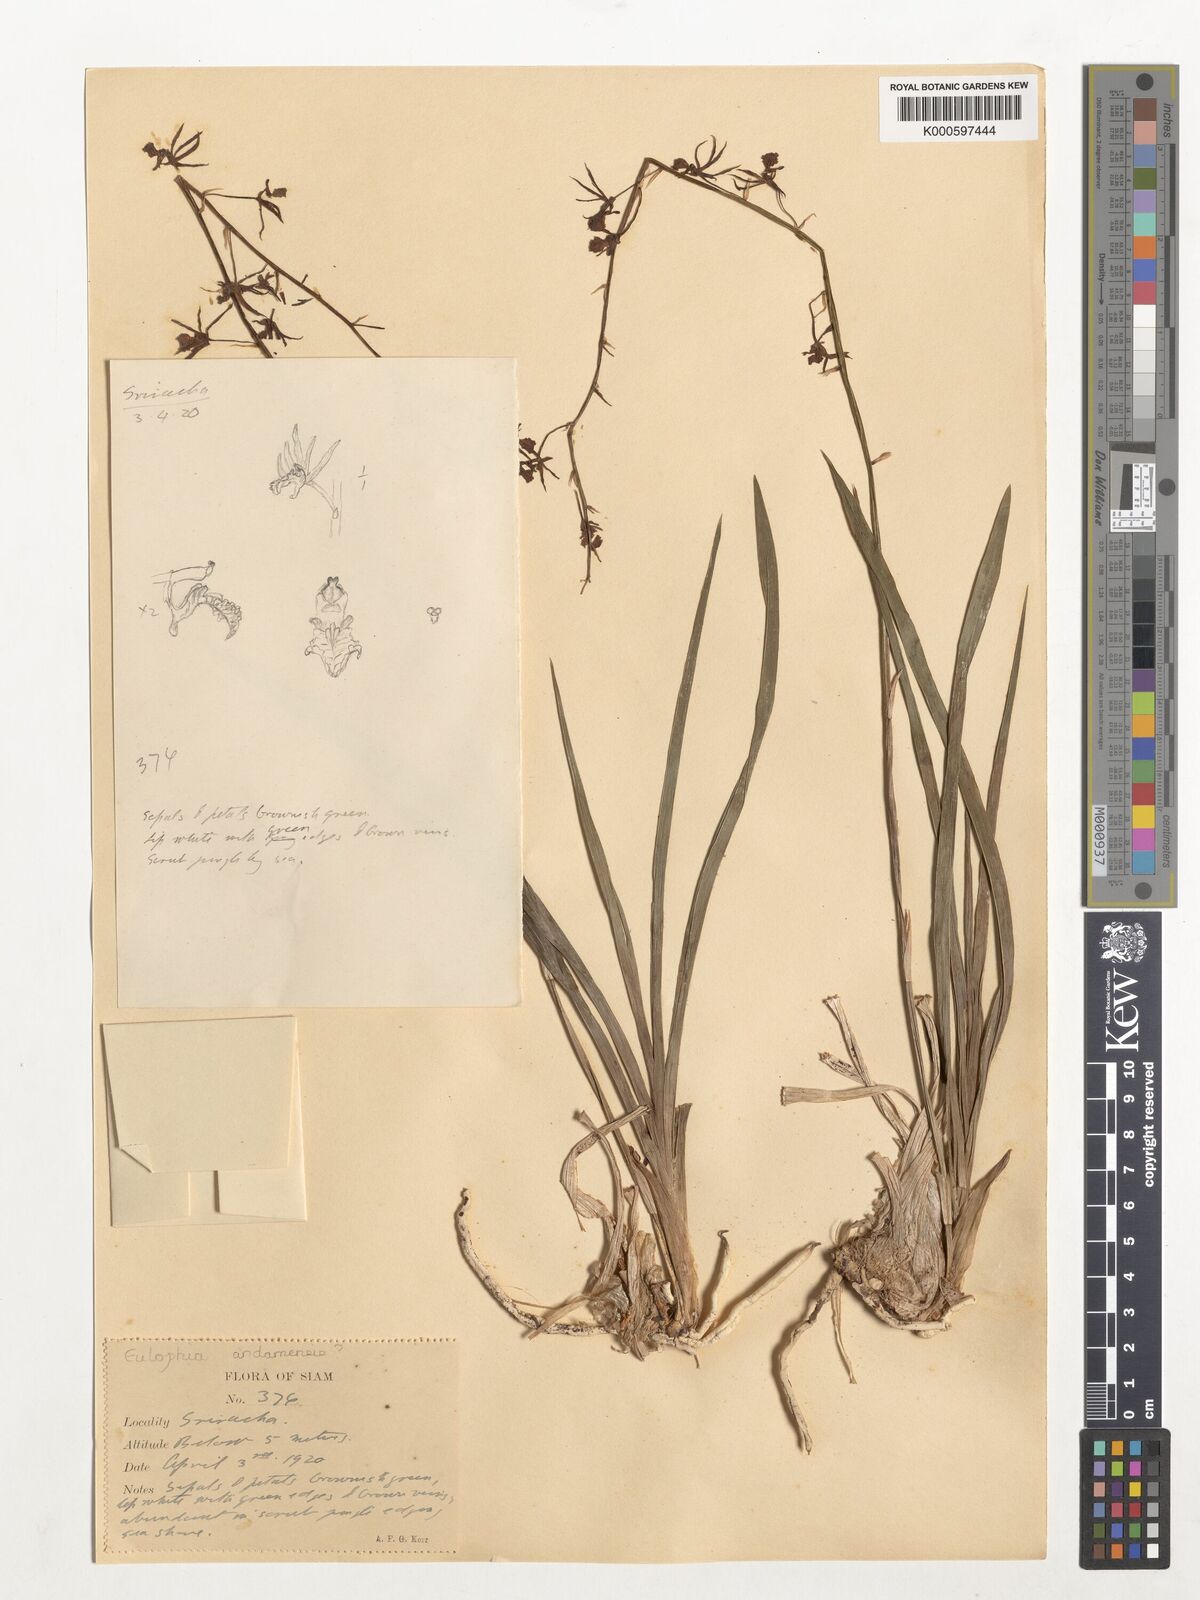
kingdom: Plantae
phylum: Tracheophyta
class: Liliopsida
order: Asparagales
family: Orchidaceae
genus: Eulophia
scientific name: Eulophia andamanensis
